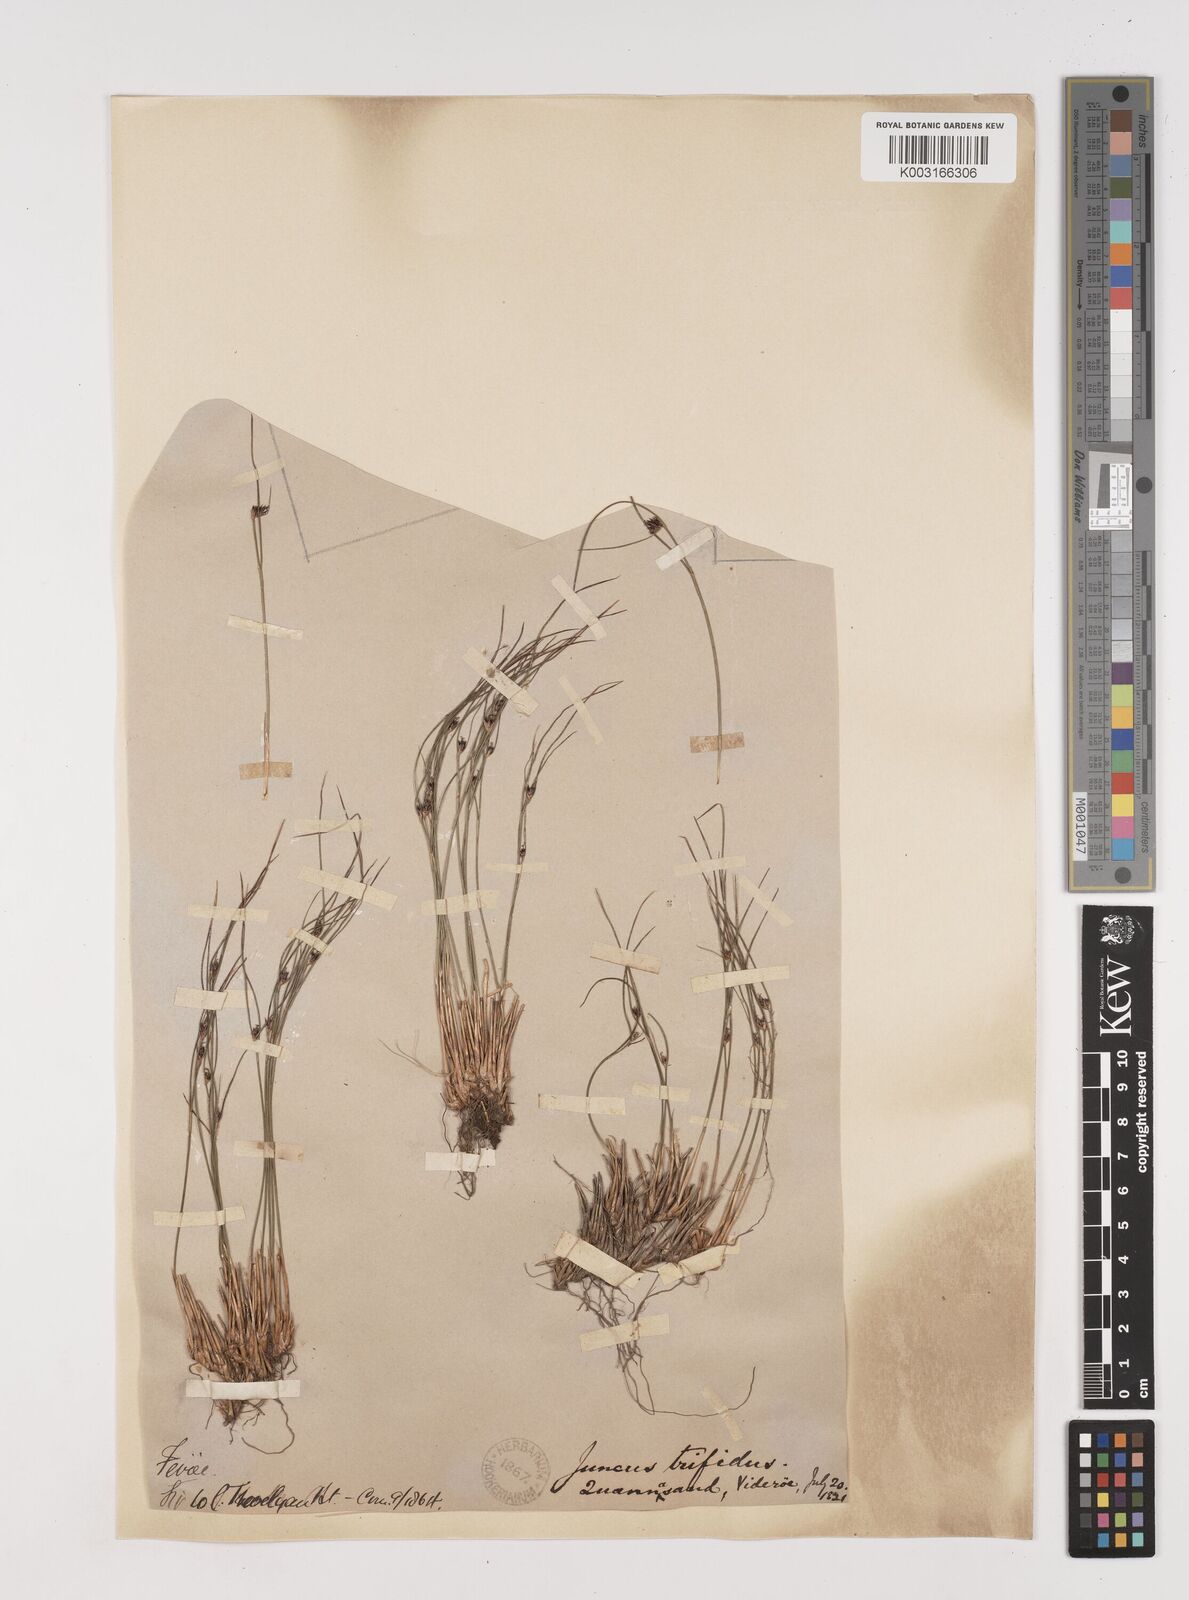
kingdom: Plantae
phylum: Tracheophyta
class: Liliopsida
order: Poales
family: Juncaceae
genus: Oreojuncus
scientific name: Oreojuncus trifidus
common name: Highland rush
